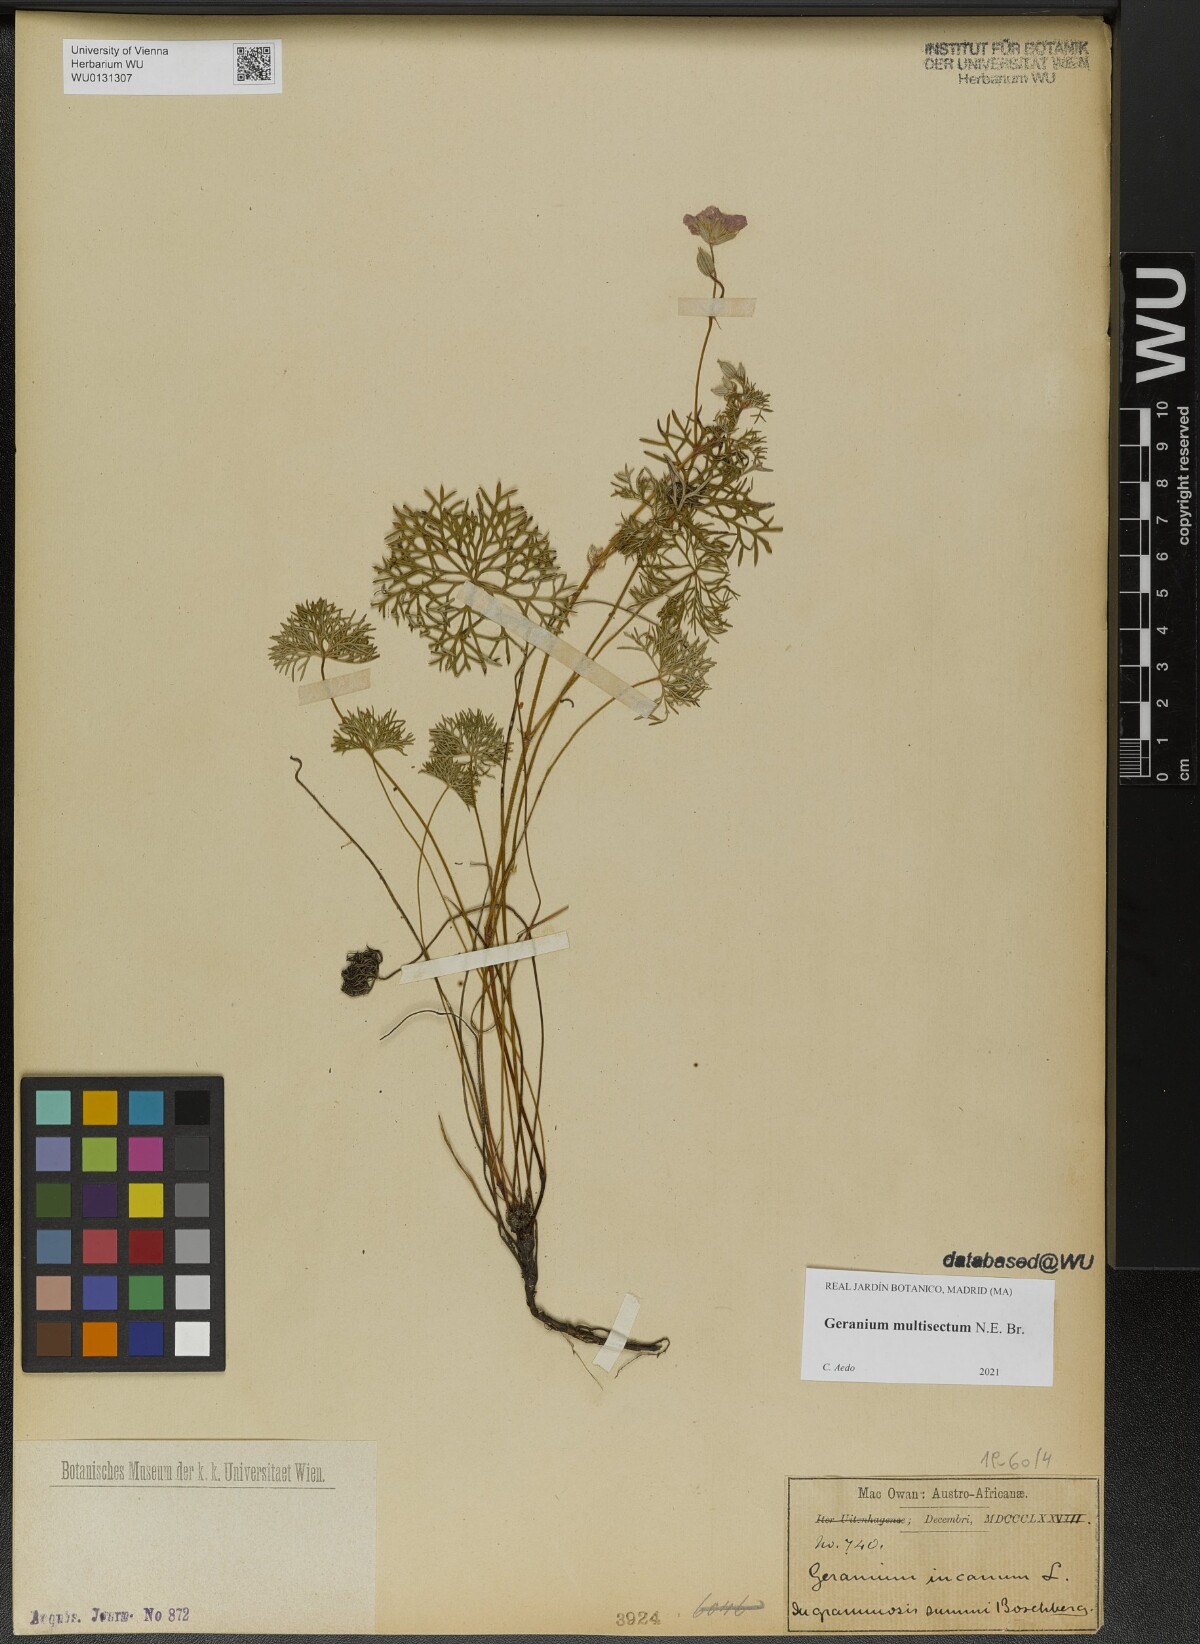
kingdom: Plantae
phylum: Tracheophyta
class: Magnoliopsida
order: Geraniales
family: Geraniaceae
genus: Geranium
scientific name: Geranium multisectum
